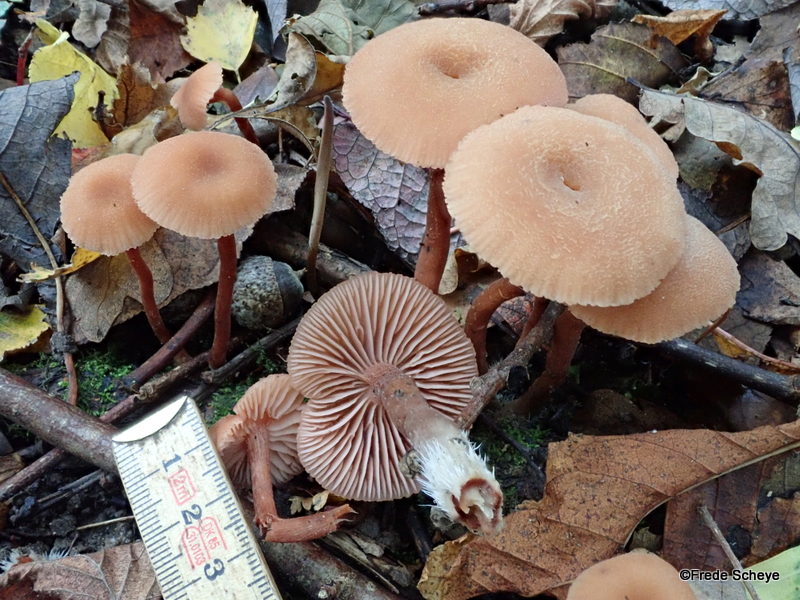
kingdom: Fungi
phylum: Basidiomycota
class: Agaricomycetes
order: Agaricales
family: Hydnangiaceae
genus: Laccaria
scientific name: Laccaria laccata
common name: rød ametysthat
